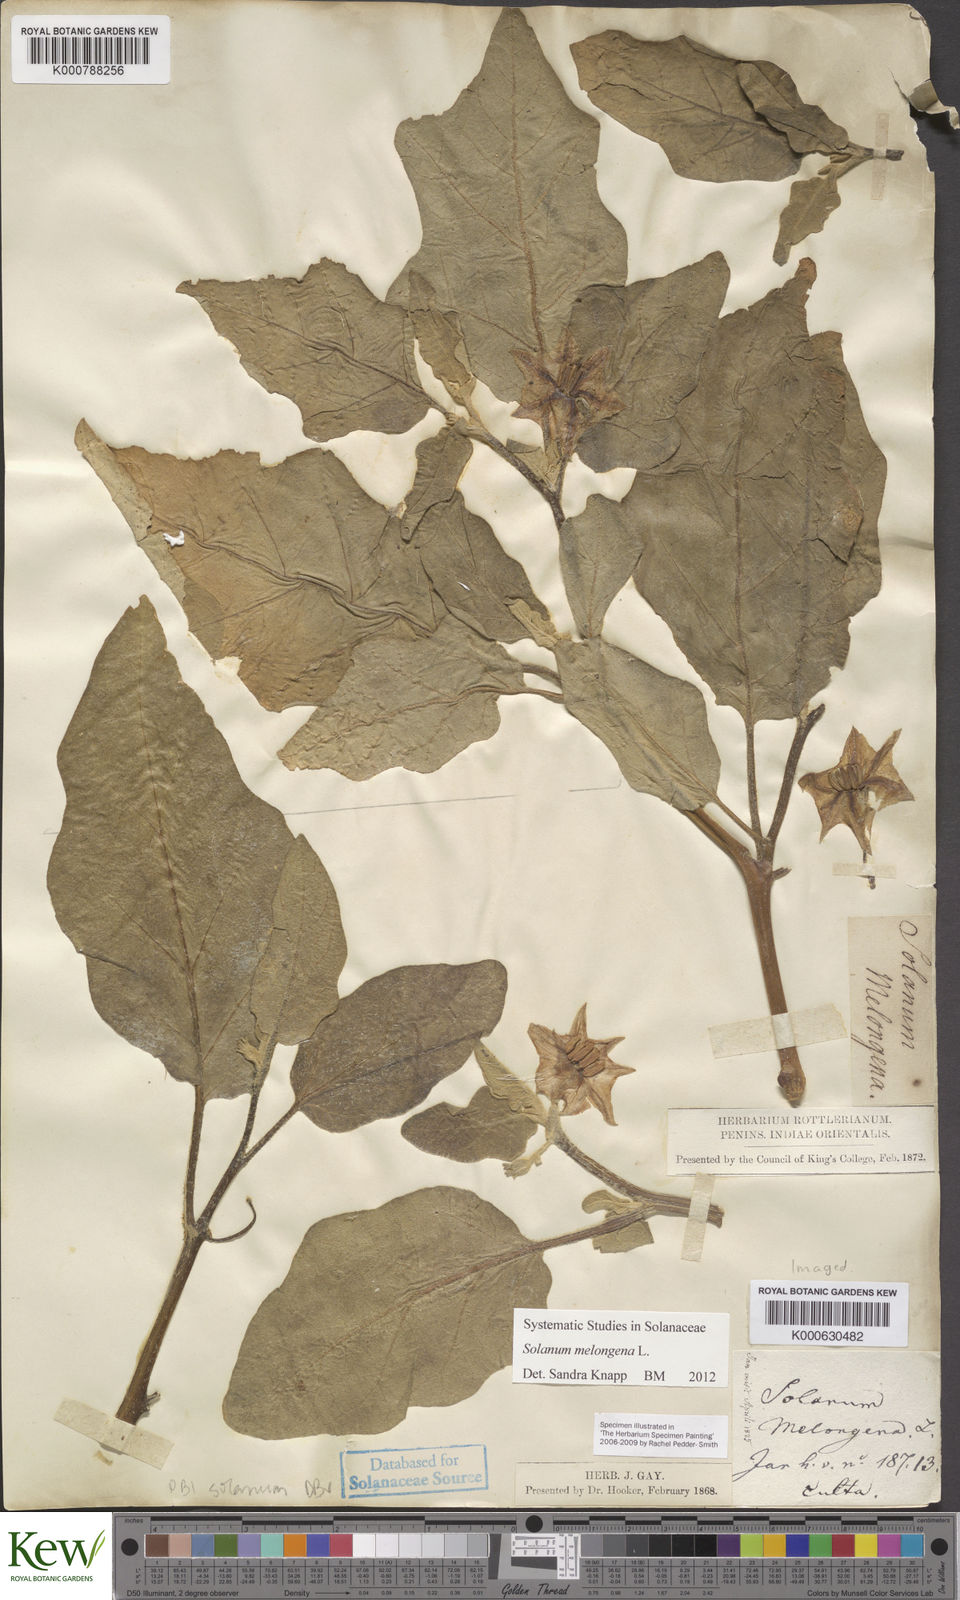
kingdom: Plantae
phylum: Tracheophyta
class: Magnoliopsida
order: Solanales
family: Solanaceae
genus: Solanum
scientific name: Solanum melongena
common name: Eggplant
